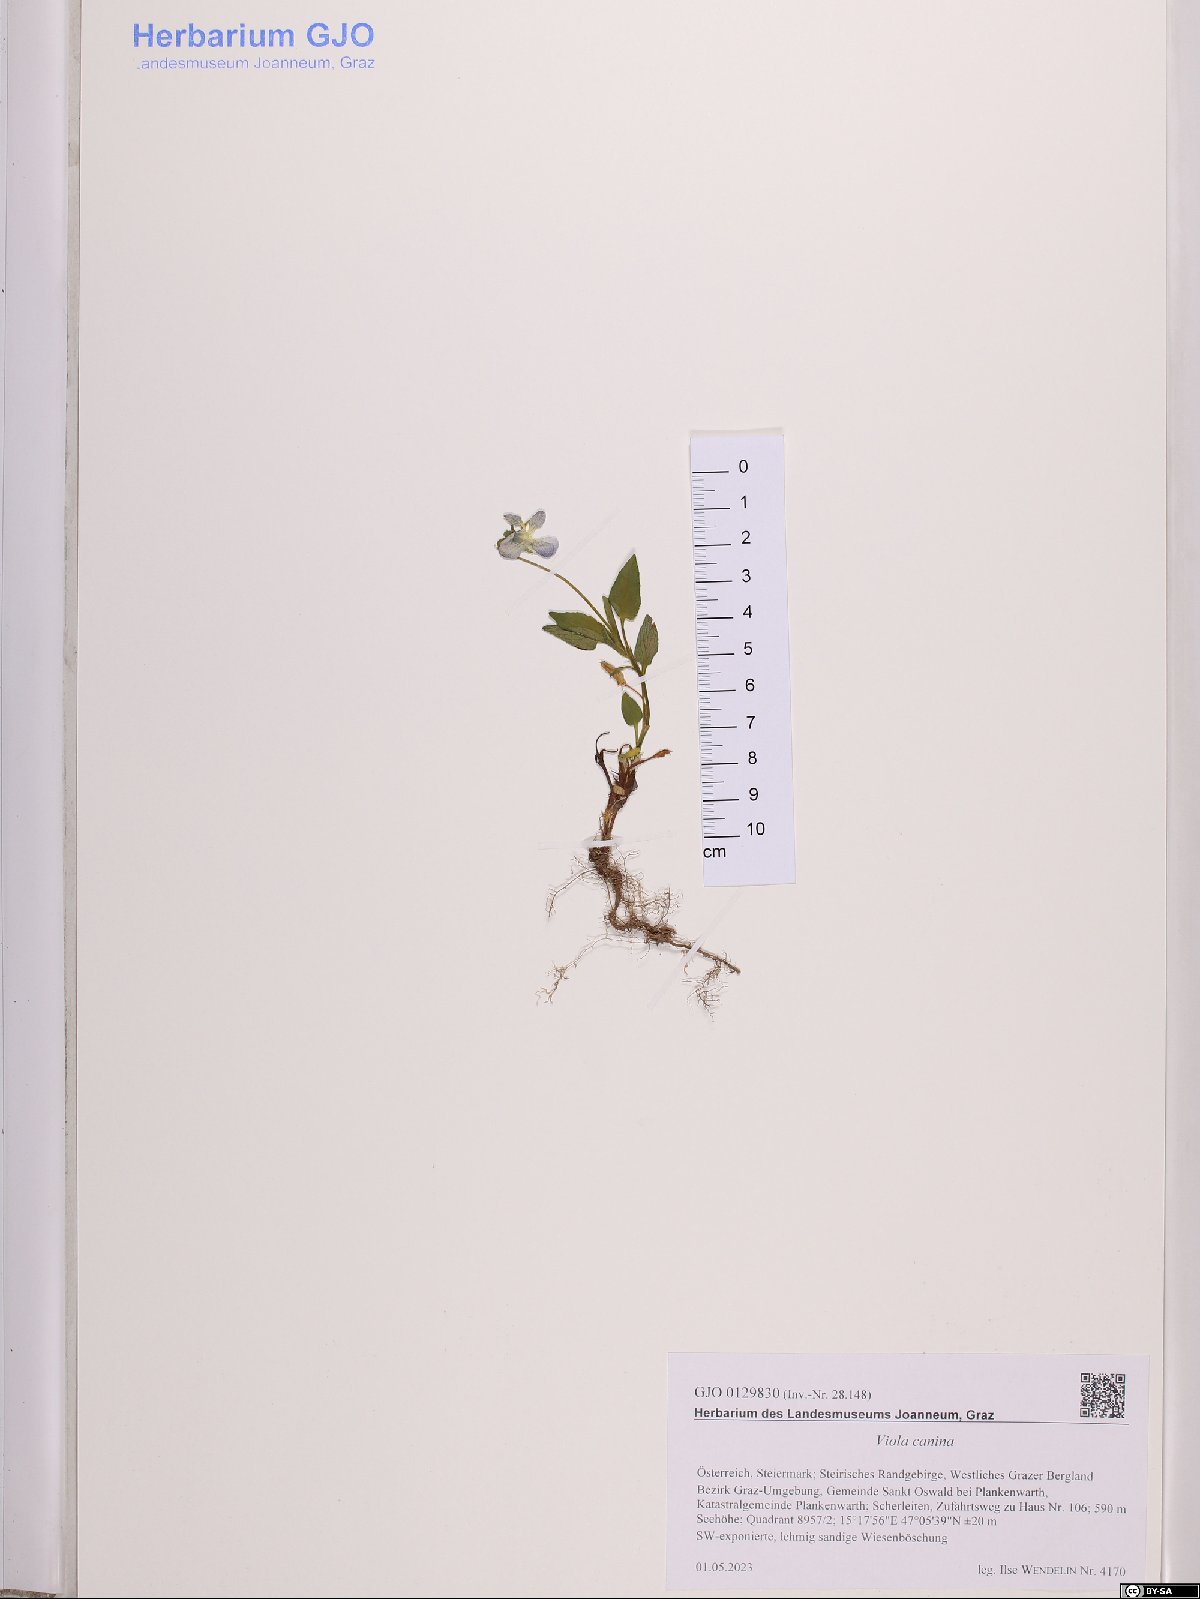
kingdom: Plantae
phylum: Tracheophyta
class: Magnoliopsida
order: Malpighiales
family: Violaceae
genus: Viola
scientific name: Viola canina
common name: Heath dog-violet
